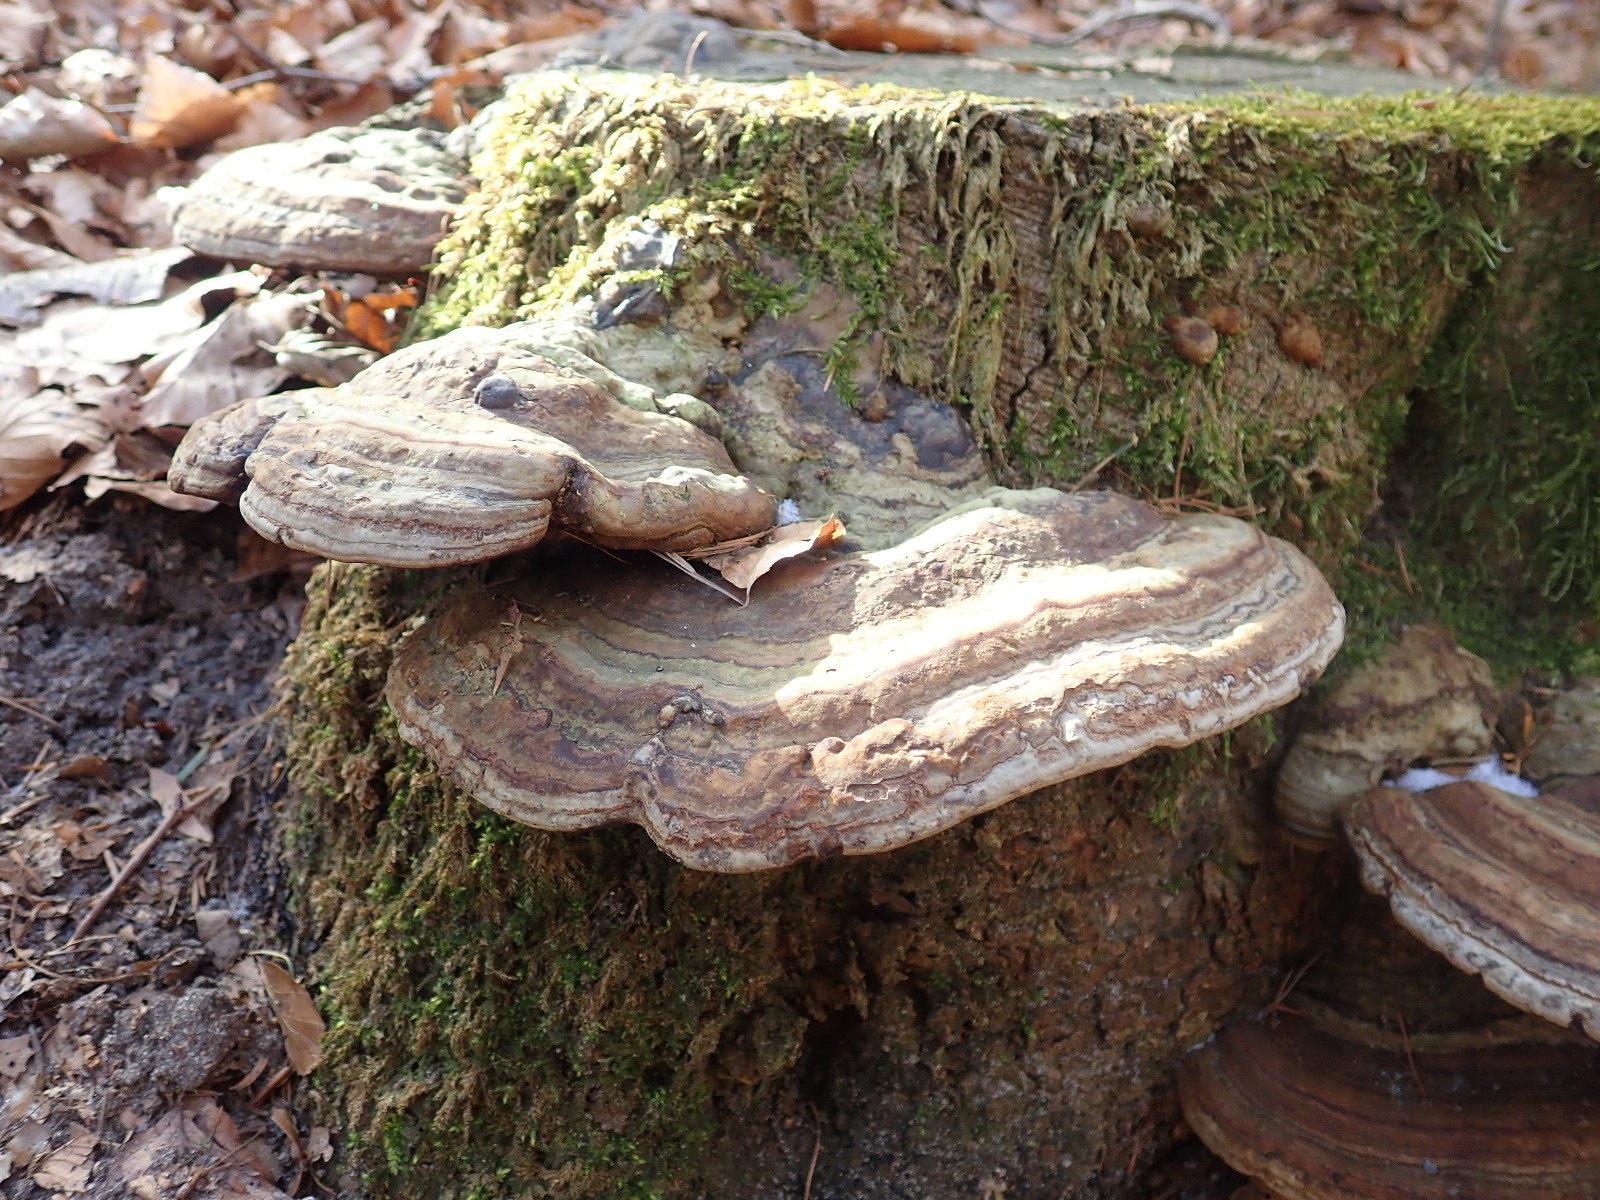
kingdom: Fungi
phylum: Basidiomycota
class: Agaricomycetes
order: Polyporales
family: Polyporaceae
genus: Ganoderma
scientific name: Ganoderma applanatum
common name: flad lakporesvamp
